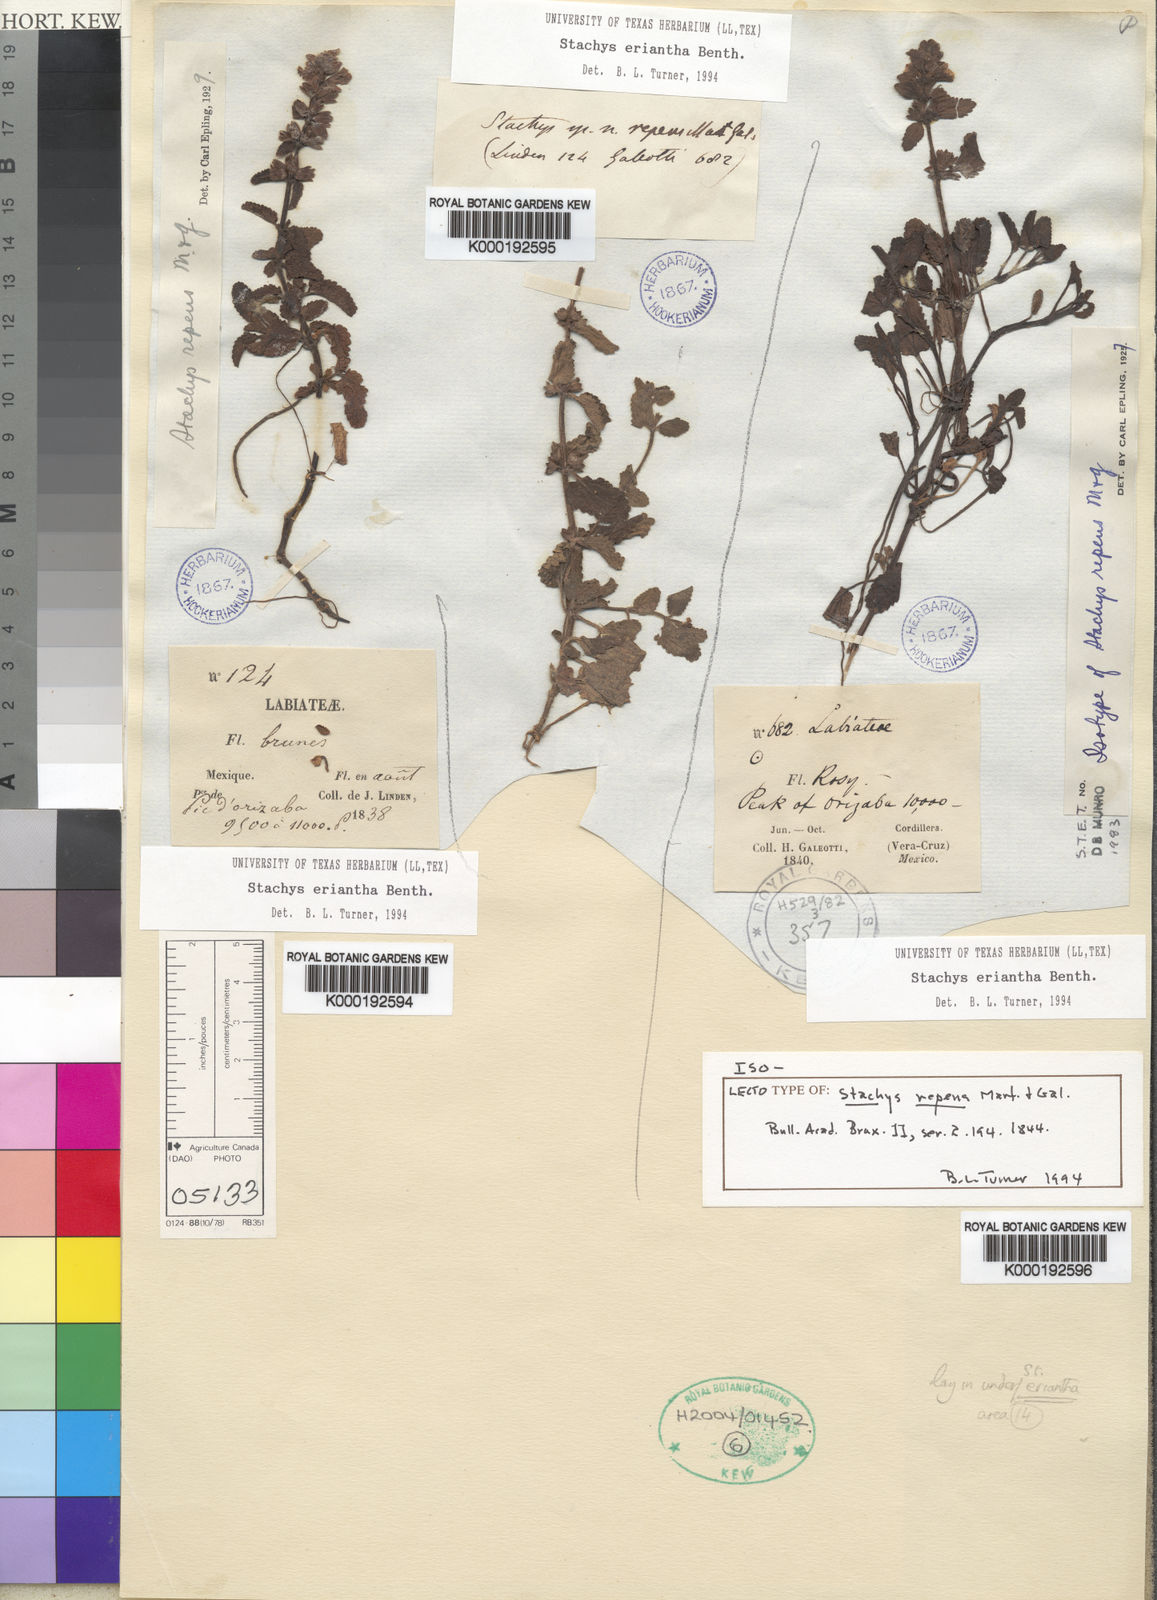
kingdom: Plantae
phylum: Tracheophyta
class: Magnoliopsida
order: Lamiales
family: Lamiaceae
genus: Stachys
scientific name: Stachys eriantha
